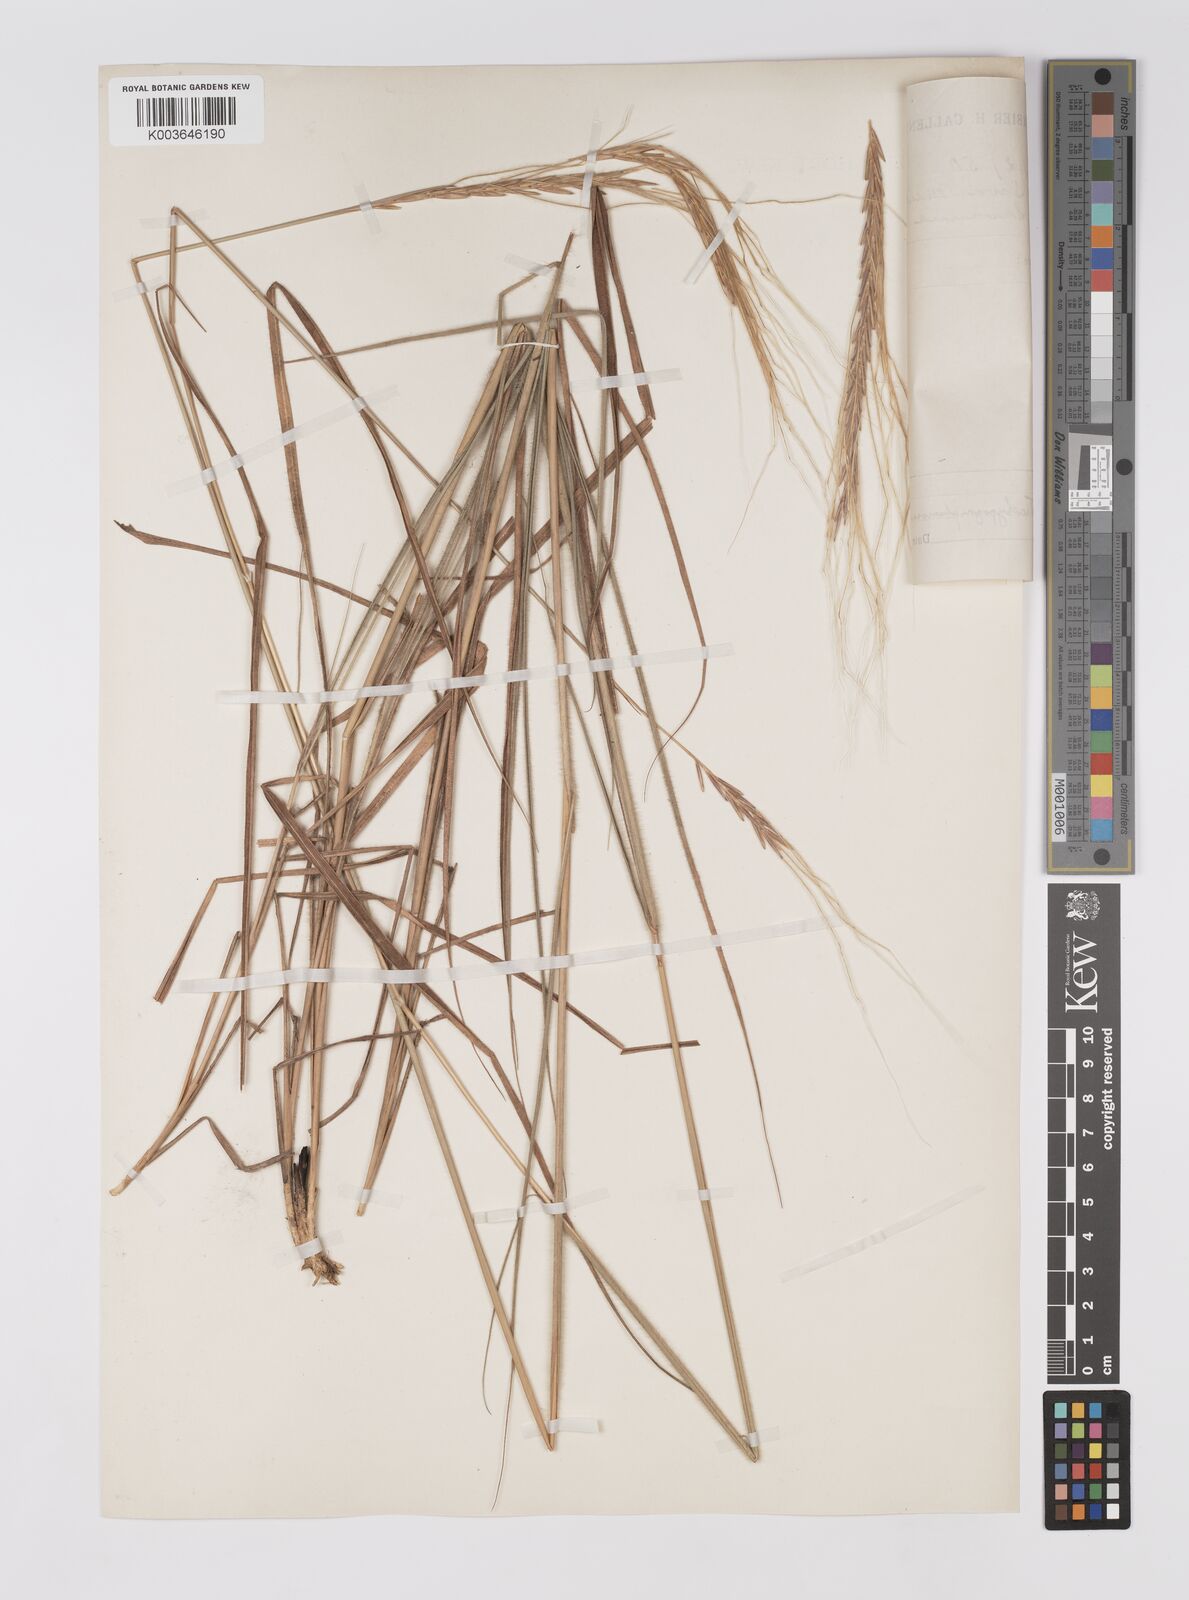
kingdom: Plantae
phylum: Tracheophyta
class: Liliopsida
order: Poales
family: Poaceae
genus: Trachypogon
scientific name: Trachypogon spicatus
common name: Crinkle-awn
